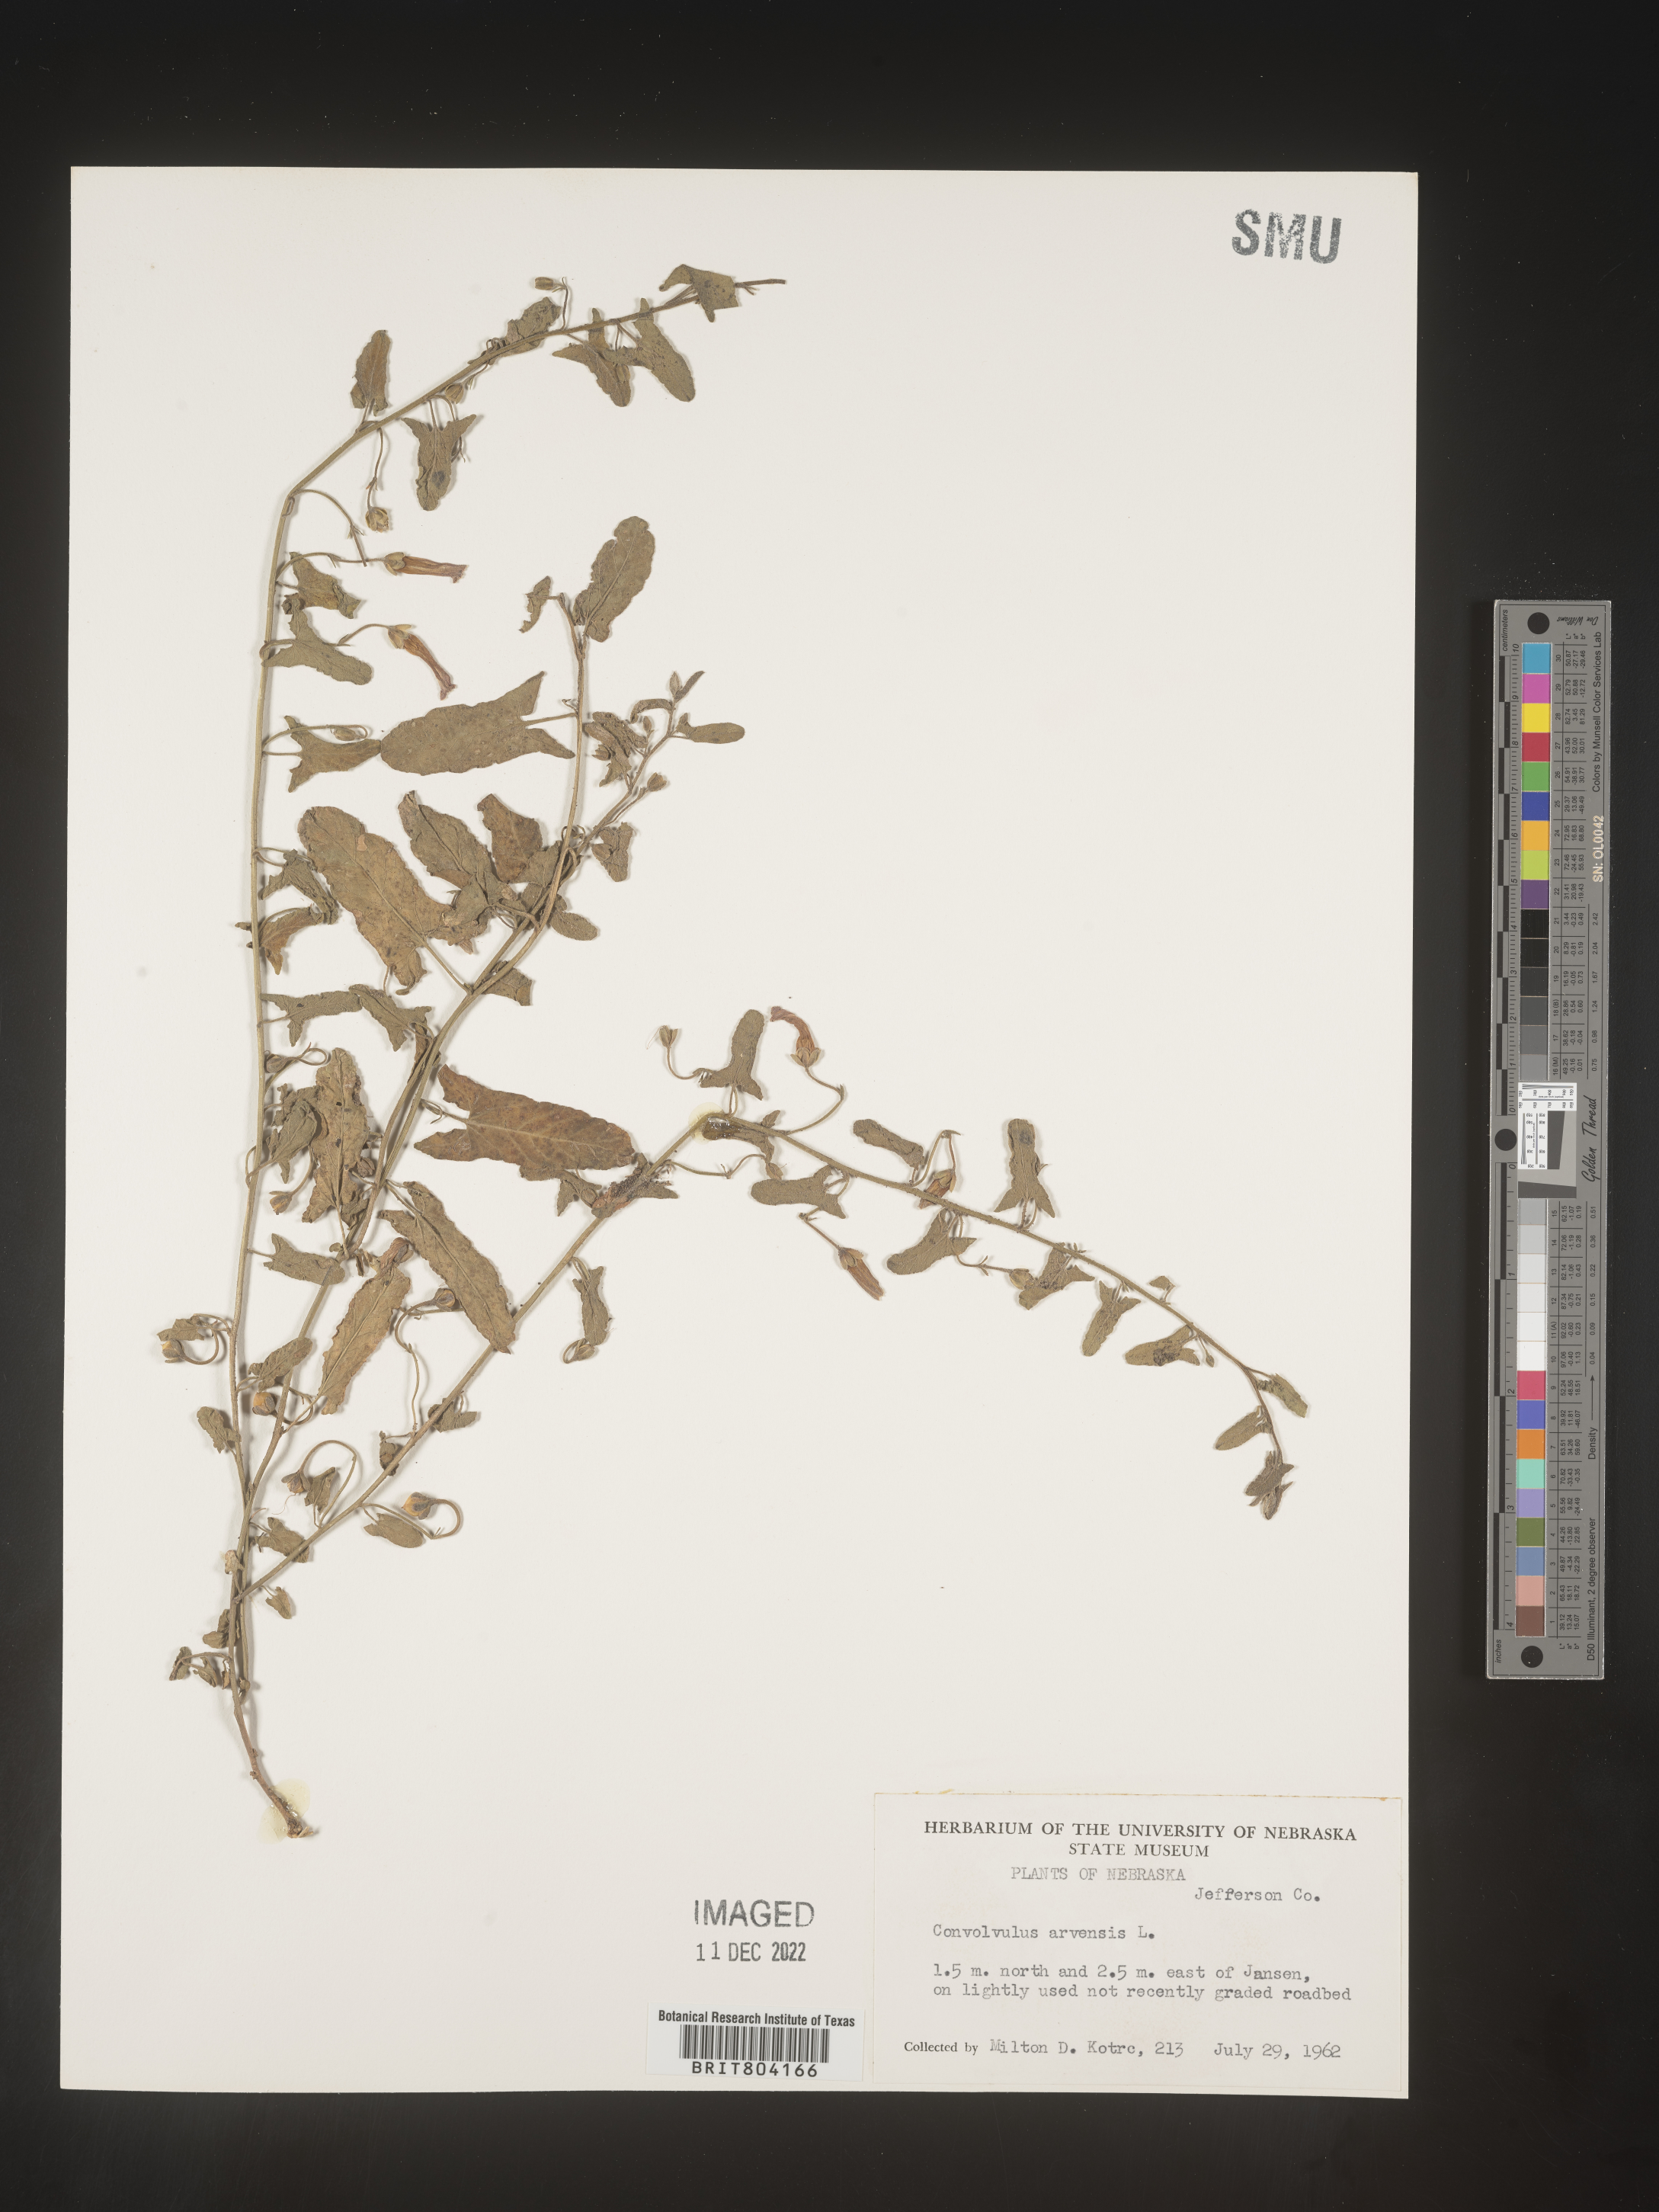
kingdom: Plantae
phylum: Tracheophyta
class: Magnoliopsida
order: Solanales
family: Convolvulaceae
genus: Convolvulus
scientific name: Convolvulus arvensis
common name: Field bindweed
